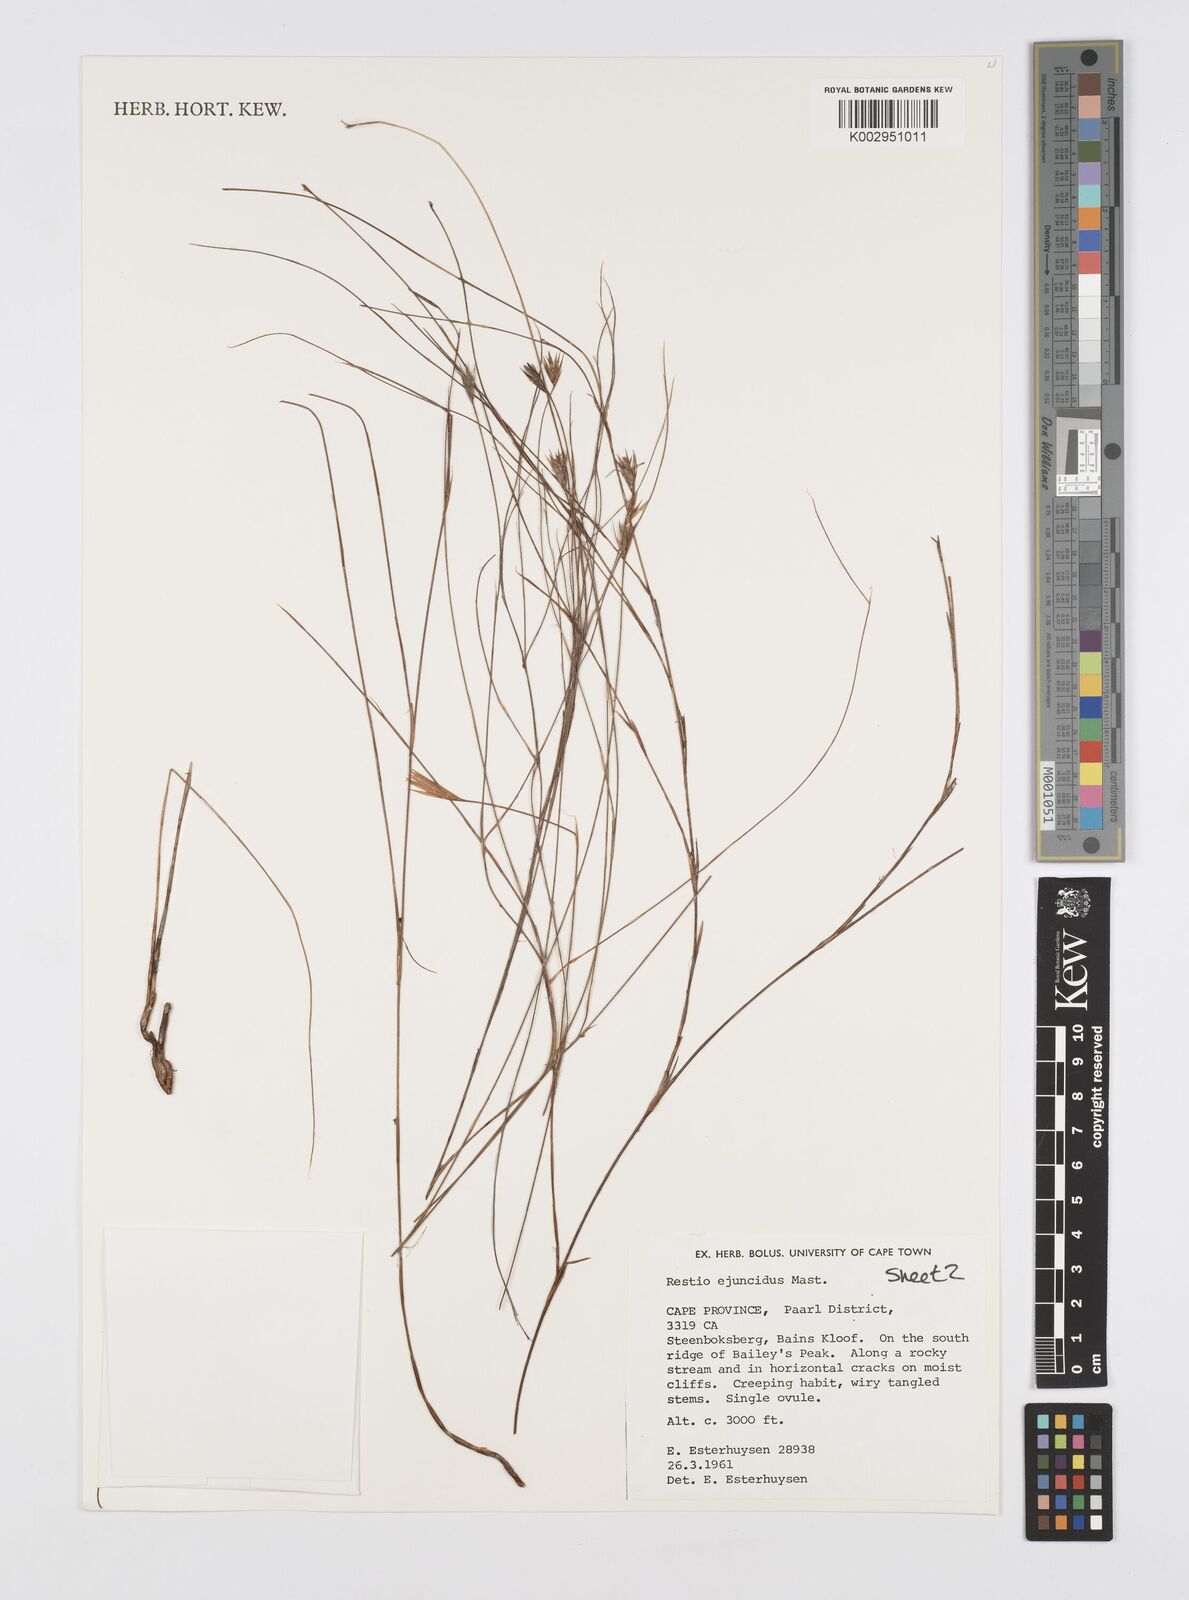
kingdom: Plantae
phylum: Tracheophyta
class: Liliopsida
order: Poales
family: Restionaceae
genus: Restio
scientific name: Restio ejuncidus
